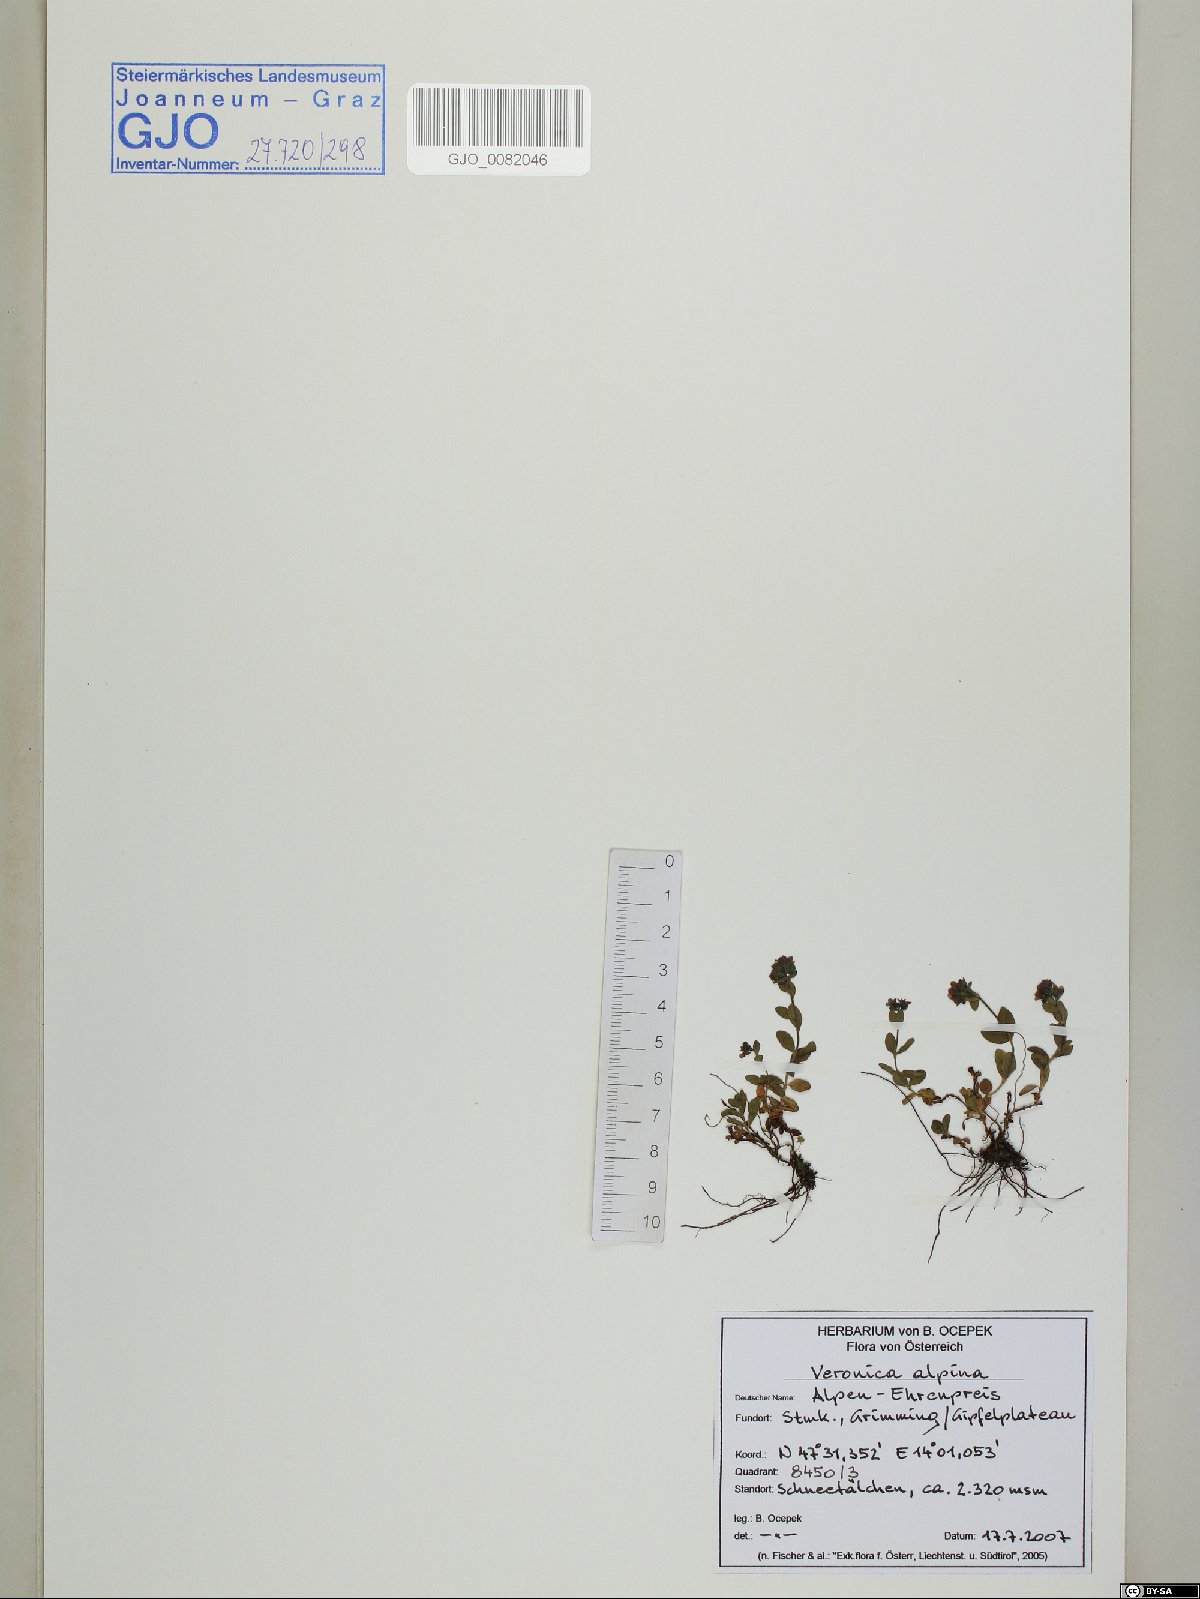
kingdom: Plantae
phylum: Tracheophyta
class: Magnoliopsida
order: Lamiales
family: Plantaginaceae
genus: Veronica
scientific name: Veronica alpina
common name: Alpine speedwell
